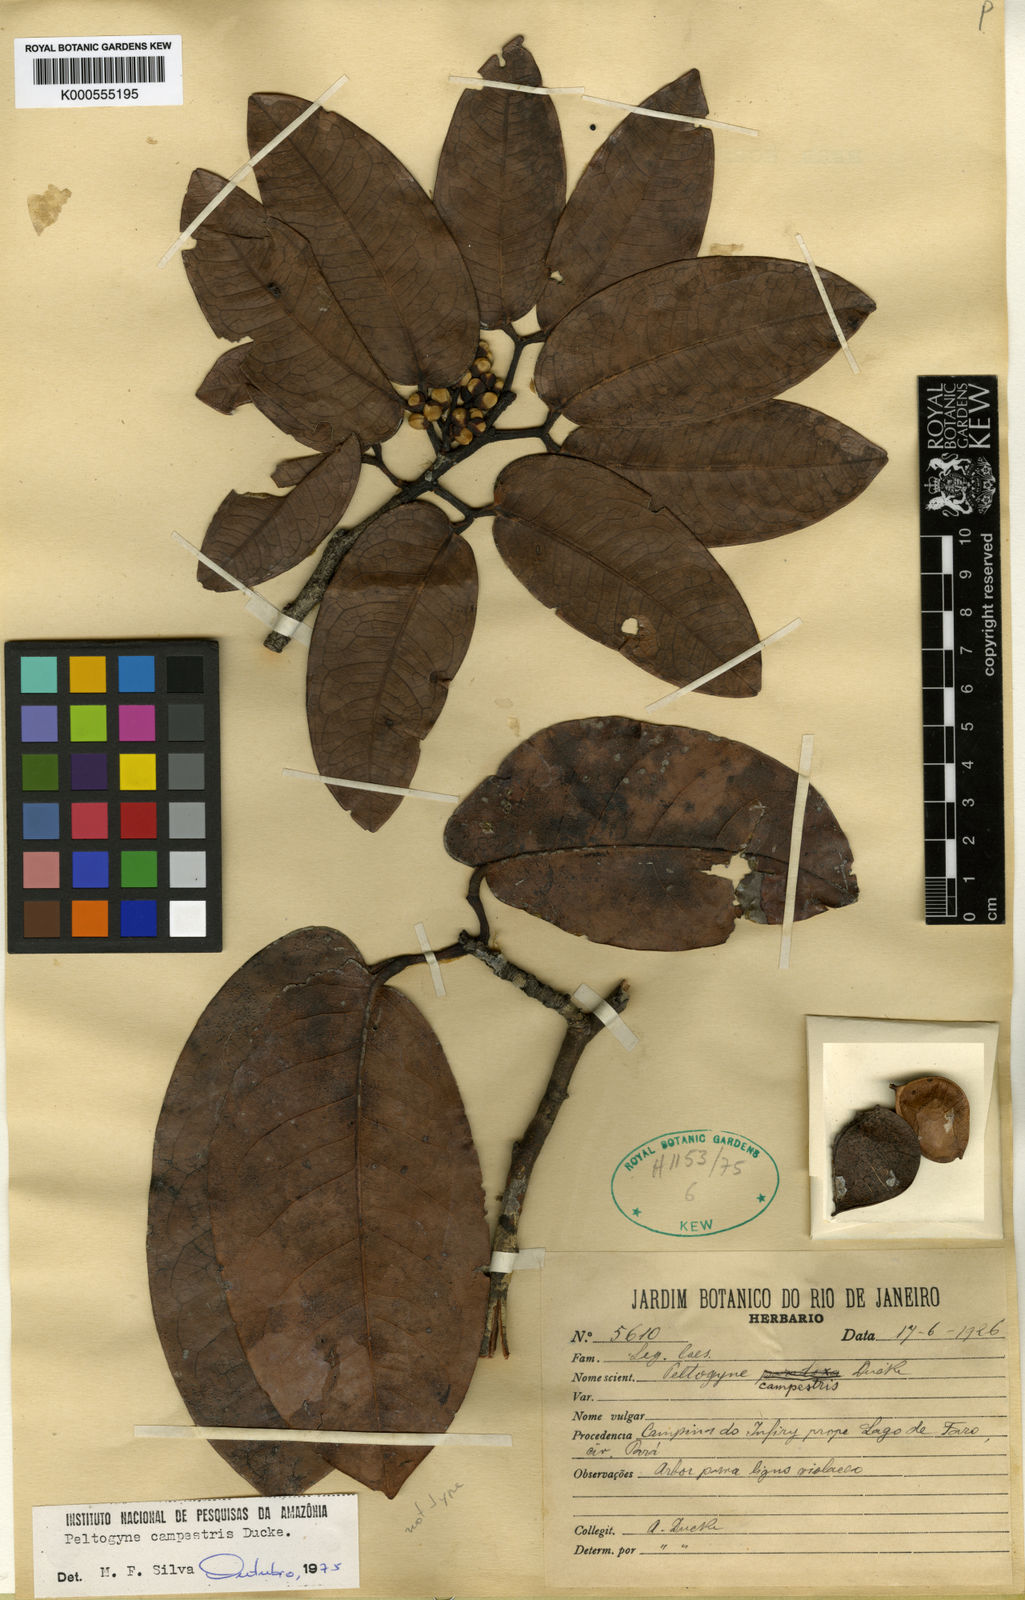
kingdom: Plantae
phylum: Tracheophyta
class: Magnoliopsida
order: Fabales
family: Fabaceae
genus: Peltogyne
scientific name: Peltogyne campestris
